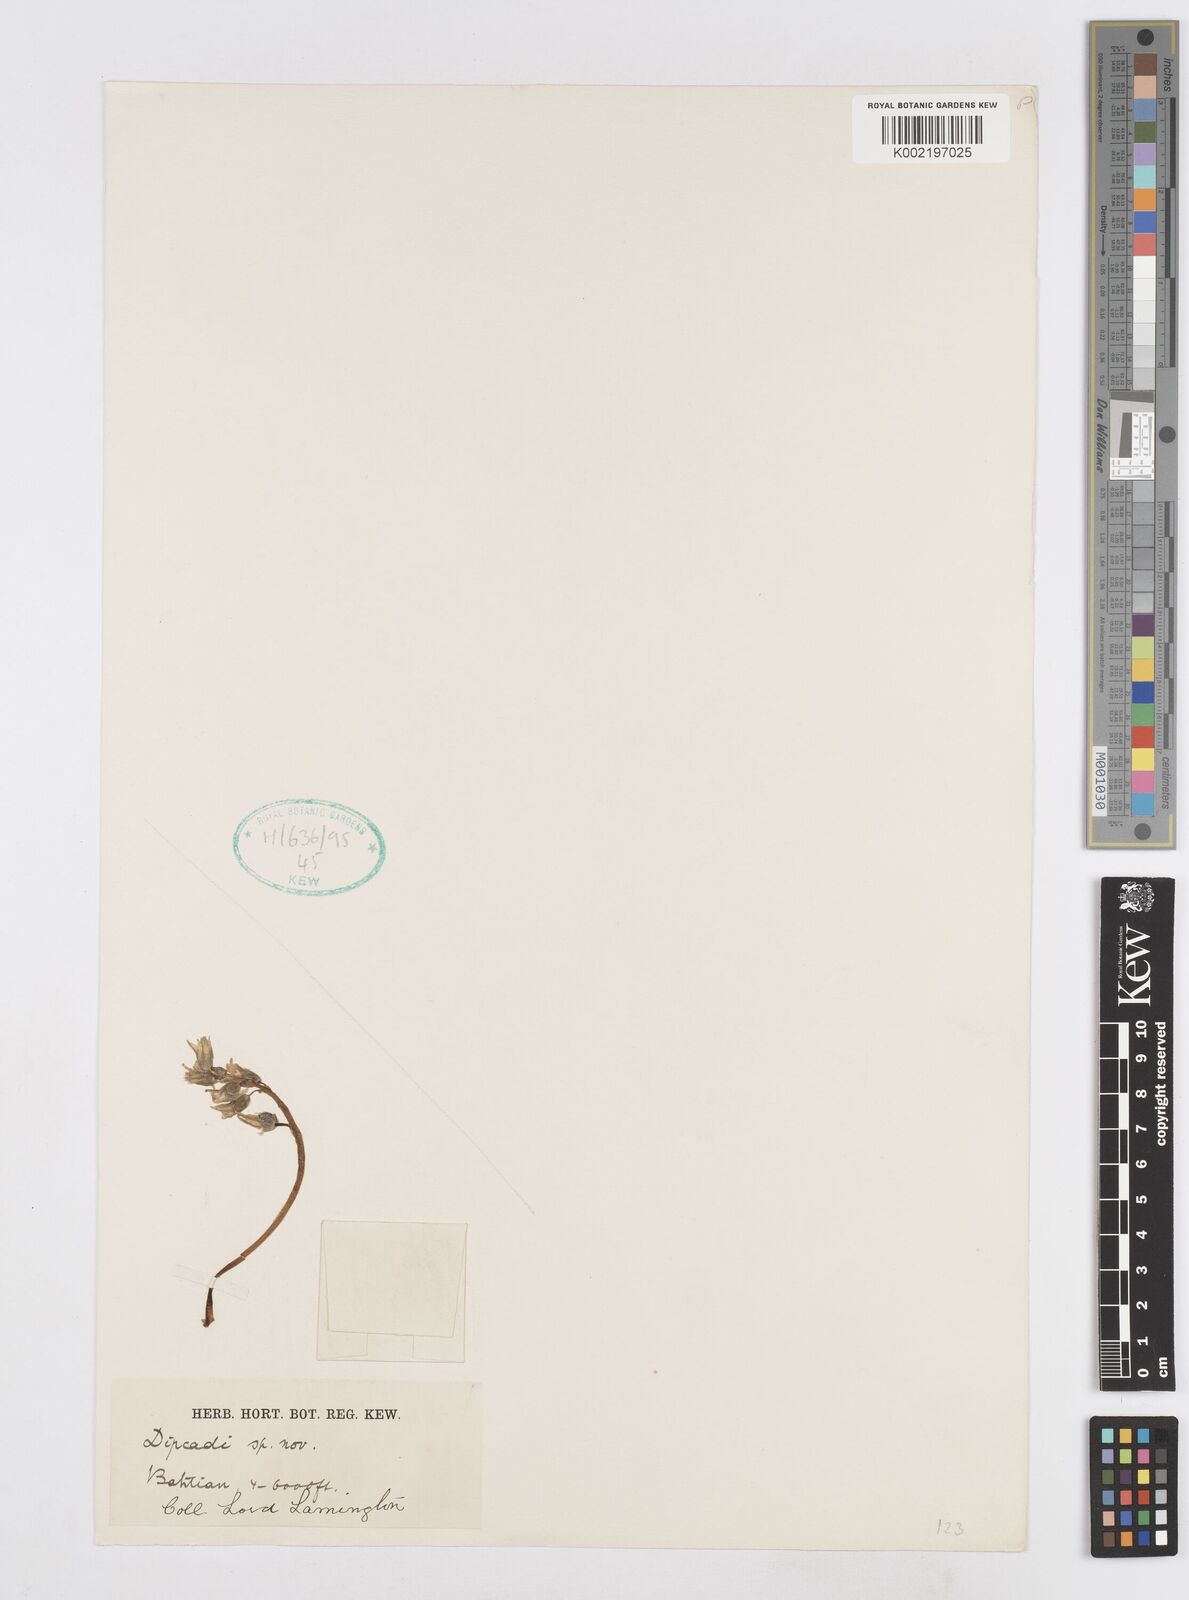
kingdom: Plantae
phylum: Tracheophyta
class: Liliopsida
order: Asparagales
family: Asparagaceae
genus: Dipcadi
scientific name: Dipcadi
